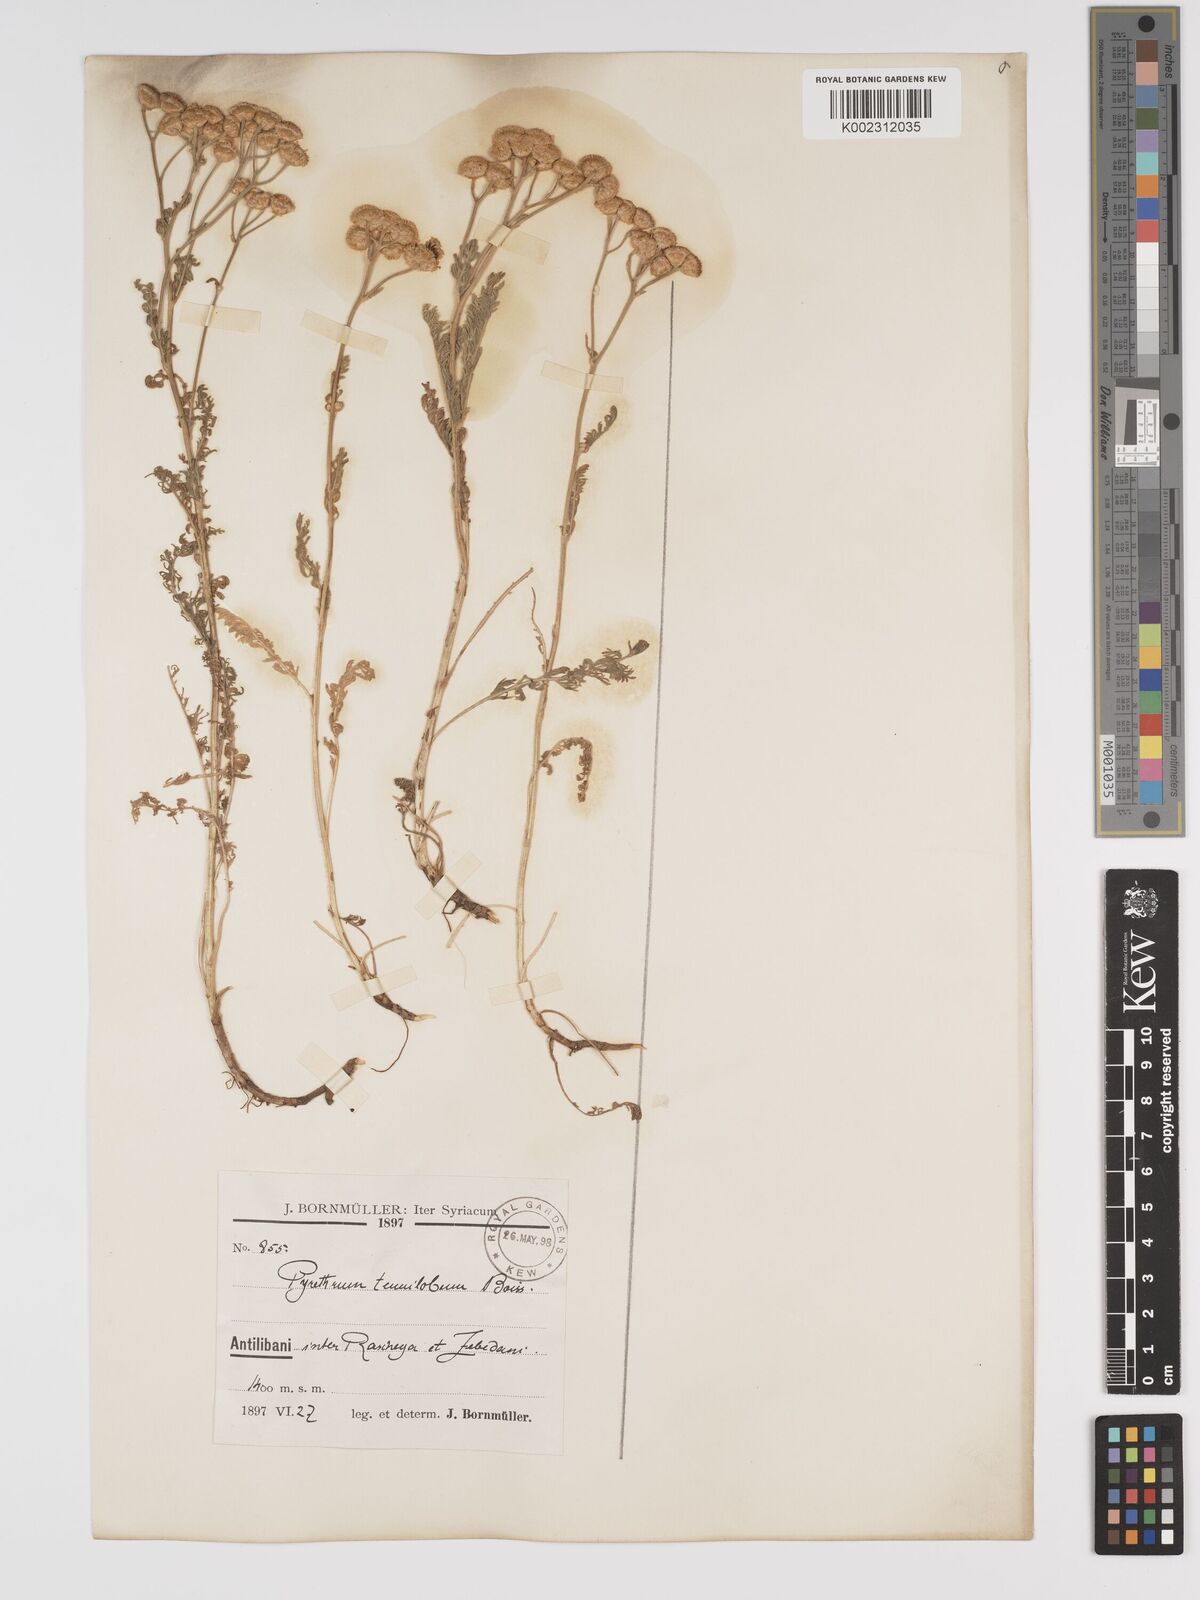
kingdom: Plantae
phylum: Tracheophyta
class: Magnoliopsida
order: Asterales
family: Asteraceae
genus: Tanacetum
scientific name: Tanacetum aucheri
